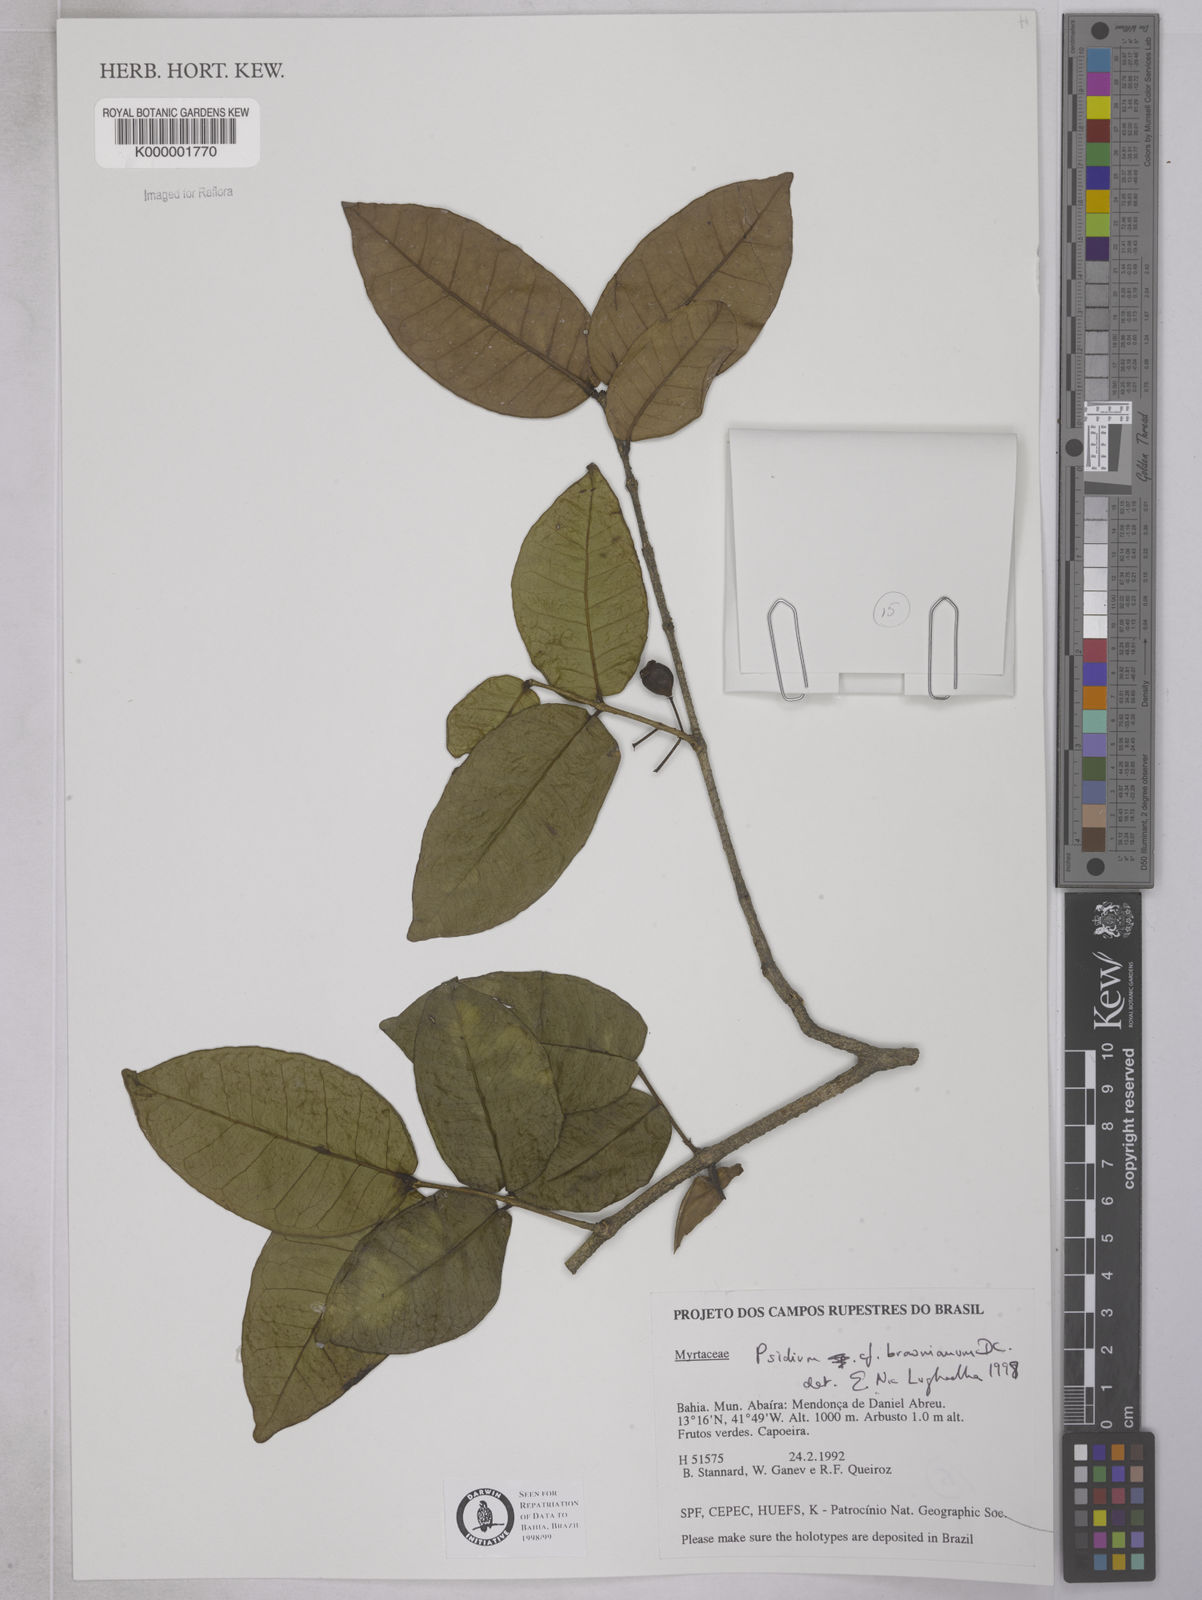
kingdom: Plantae
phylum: Tracheophyta
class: Magnoliopsida
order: Myrtales
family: Myrtaceae
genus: Psidium
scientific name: Psidium brownianum
